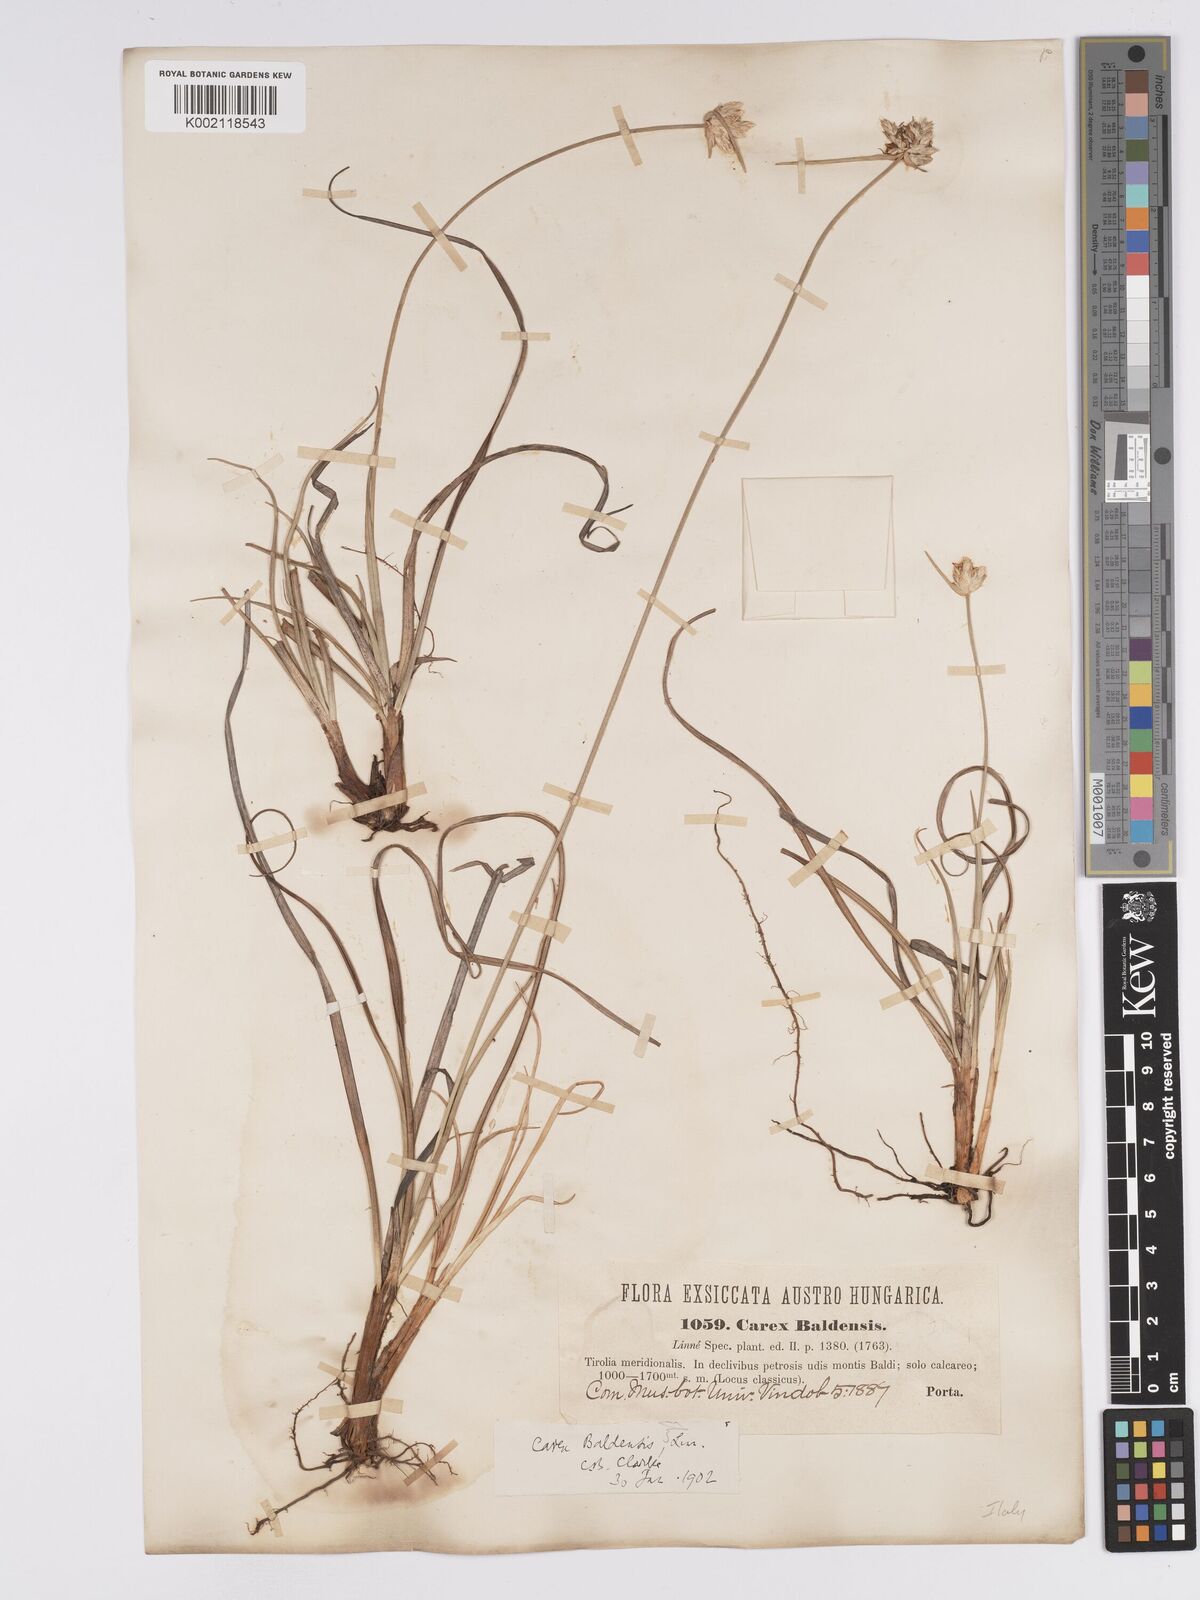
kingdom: Plantae
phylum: Tracheophyta
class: Liliopsida
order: Poales
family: Cyperaceae
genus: Carex
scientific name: Carex baldensis
